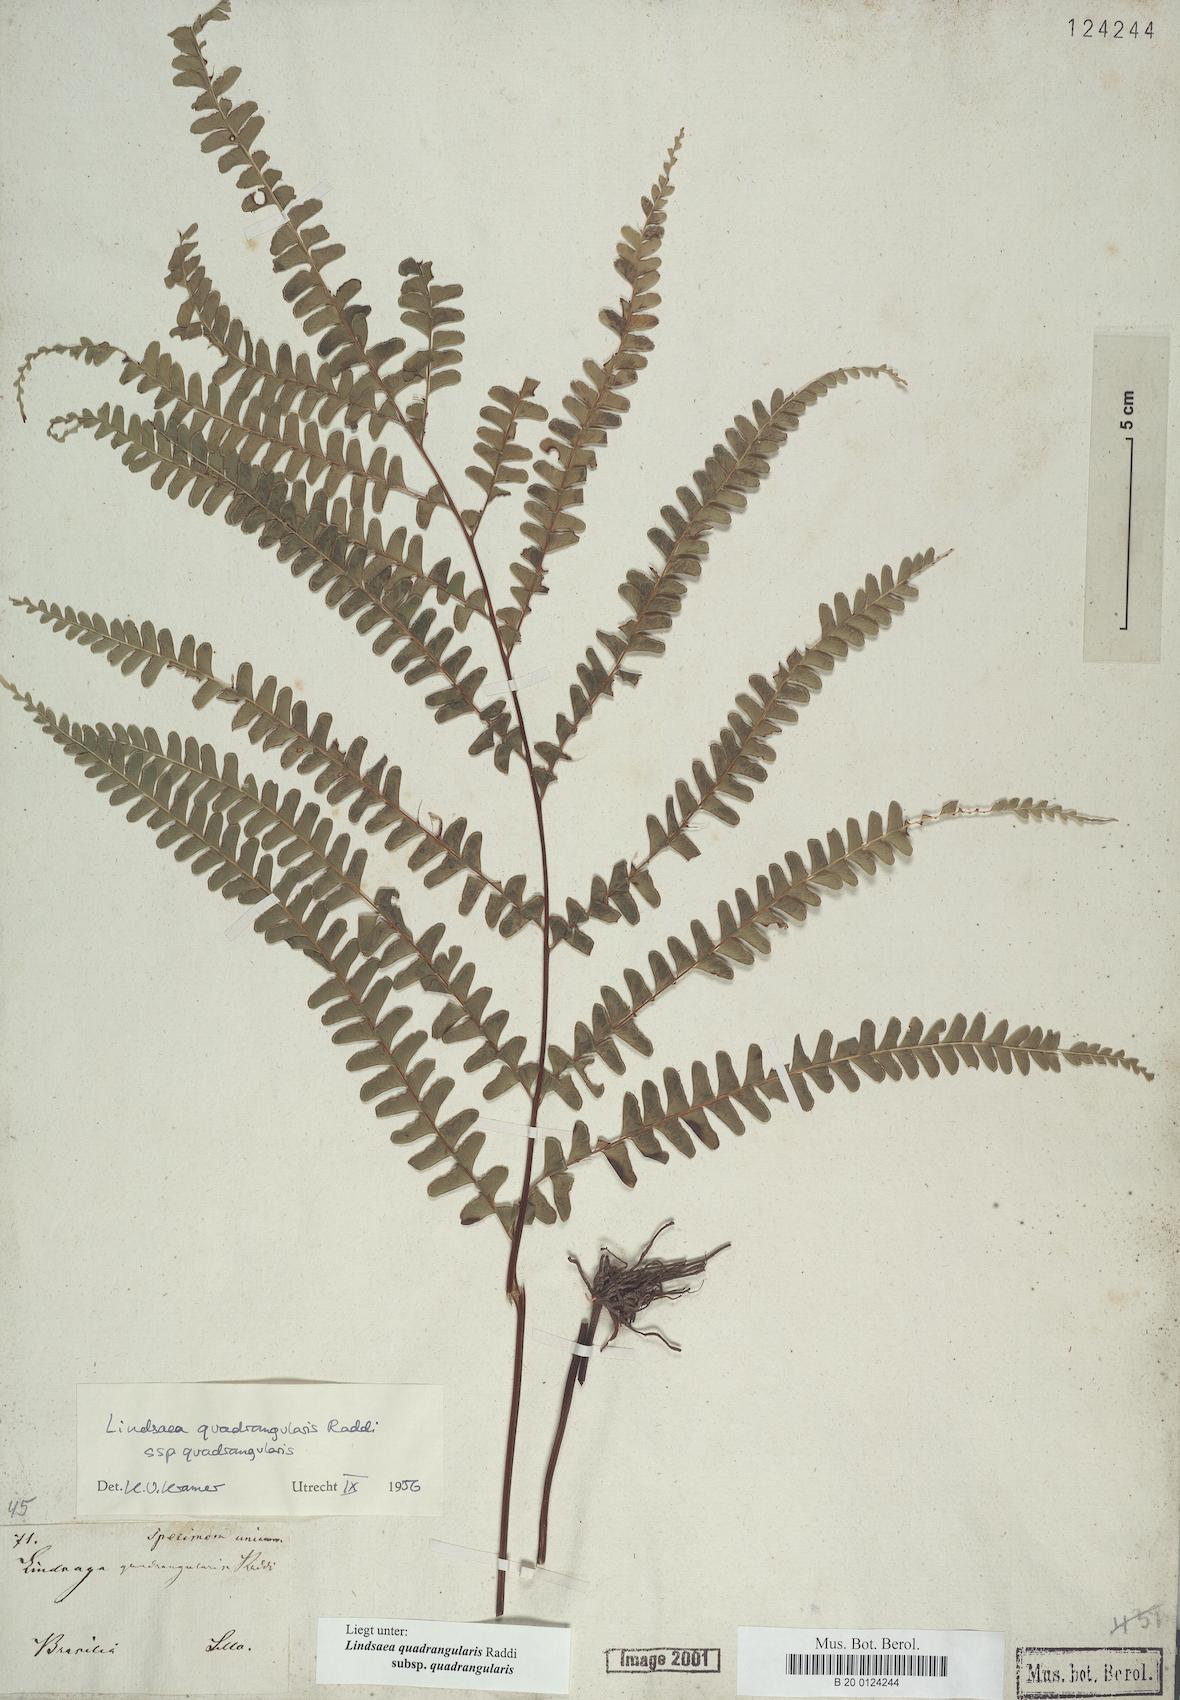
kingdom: Plantae
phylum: Tracheophyta
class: Polypodiopsida
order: Polypodiales
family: Lindsaeaceae
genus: Lindsaea
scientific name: Lindsaea quadrangularis
